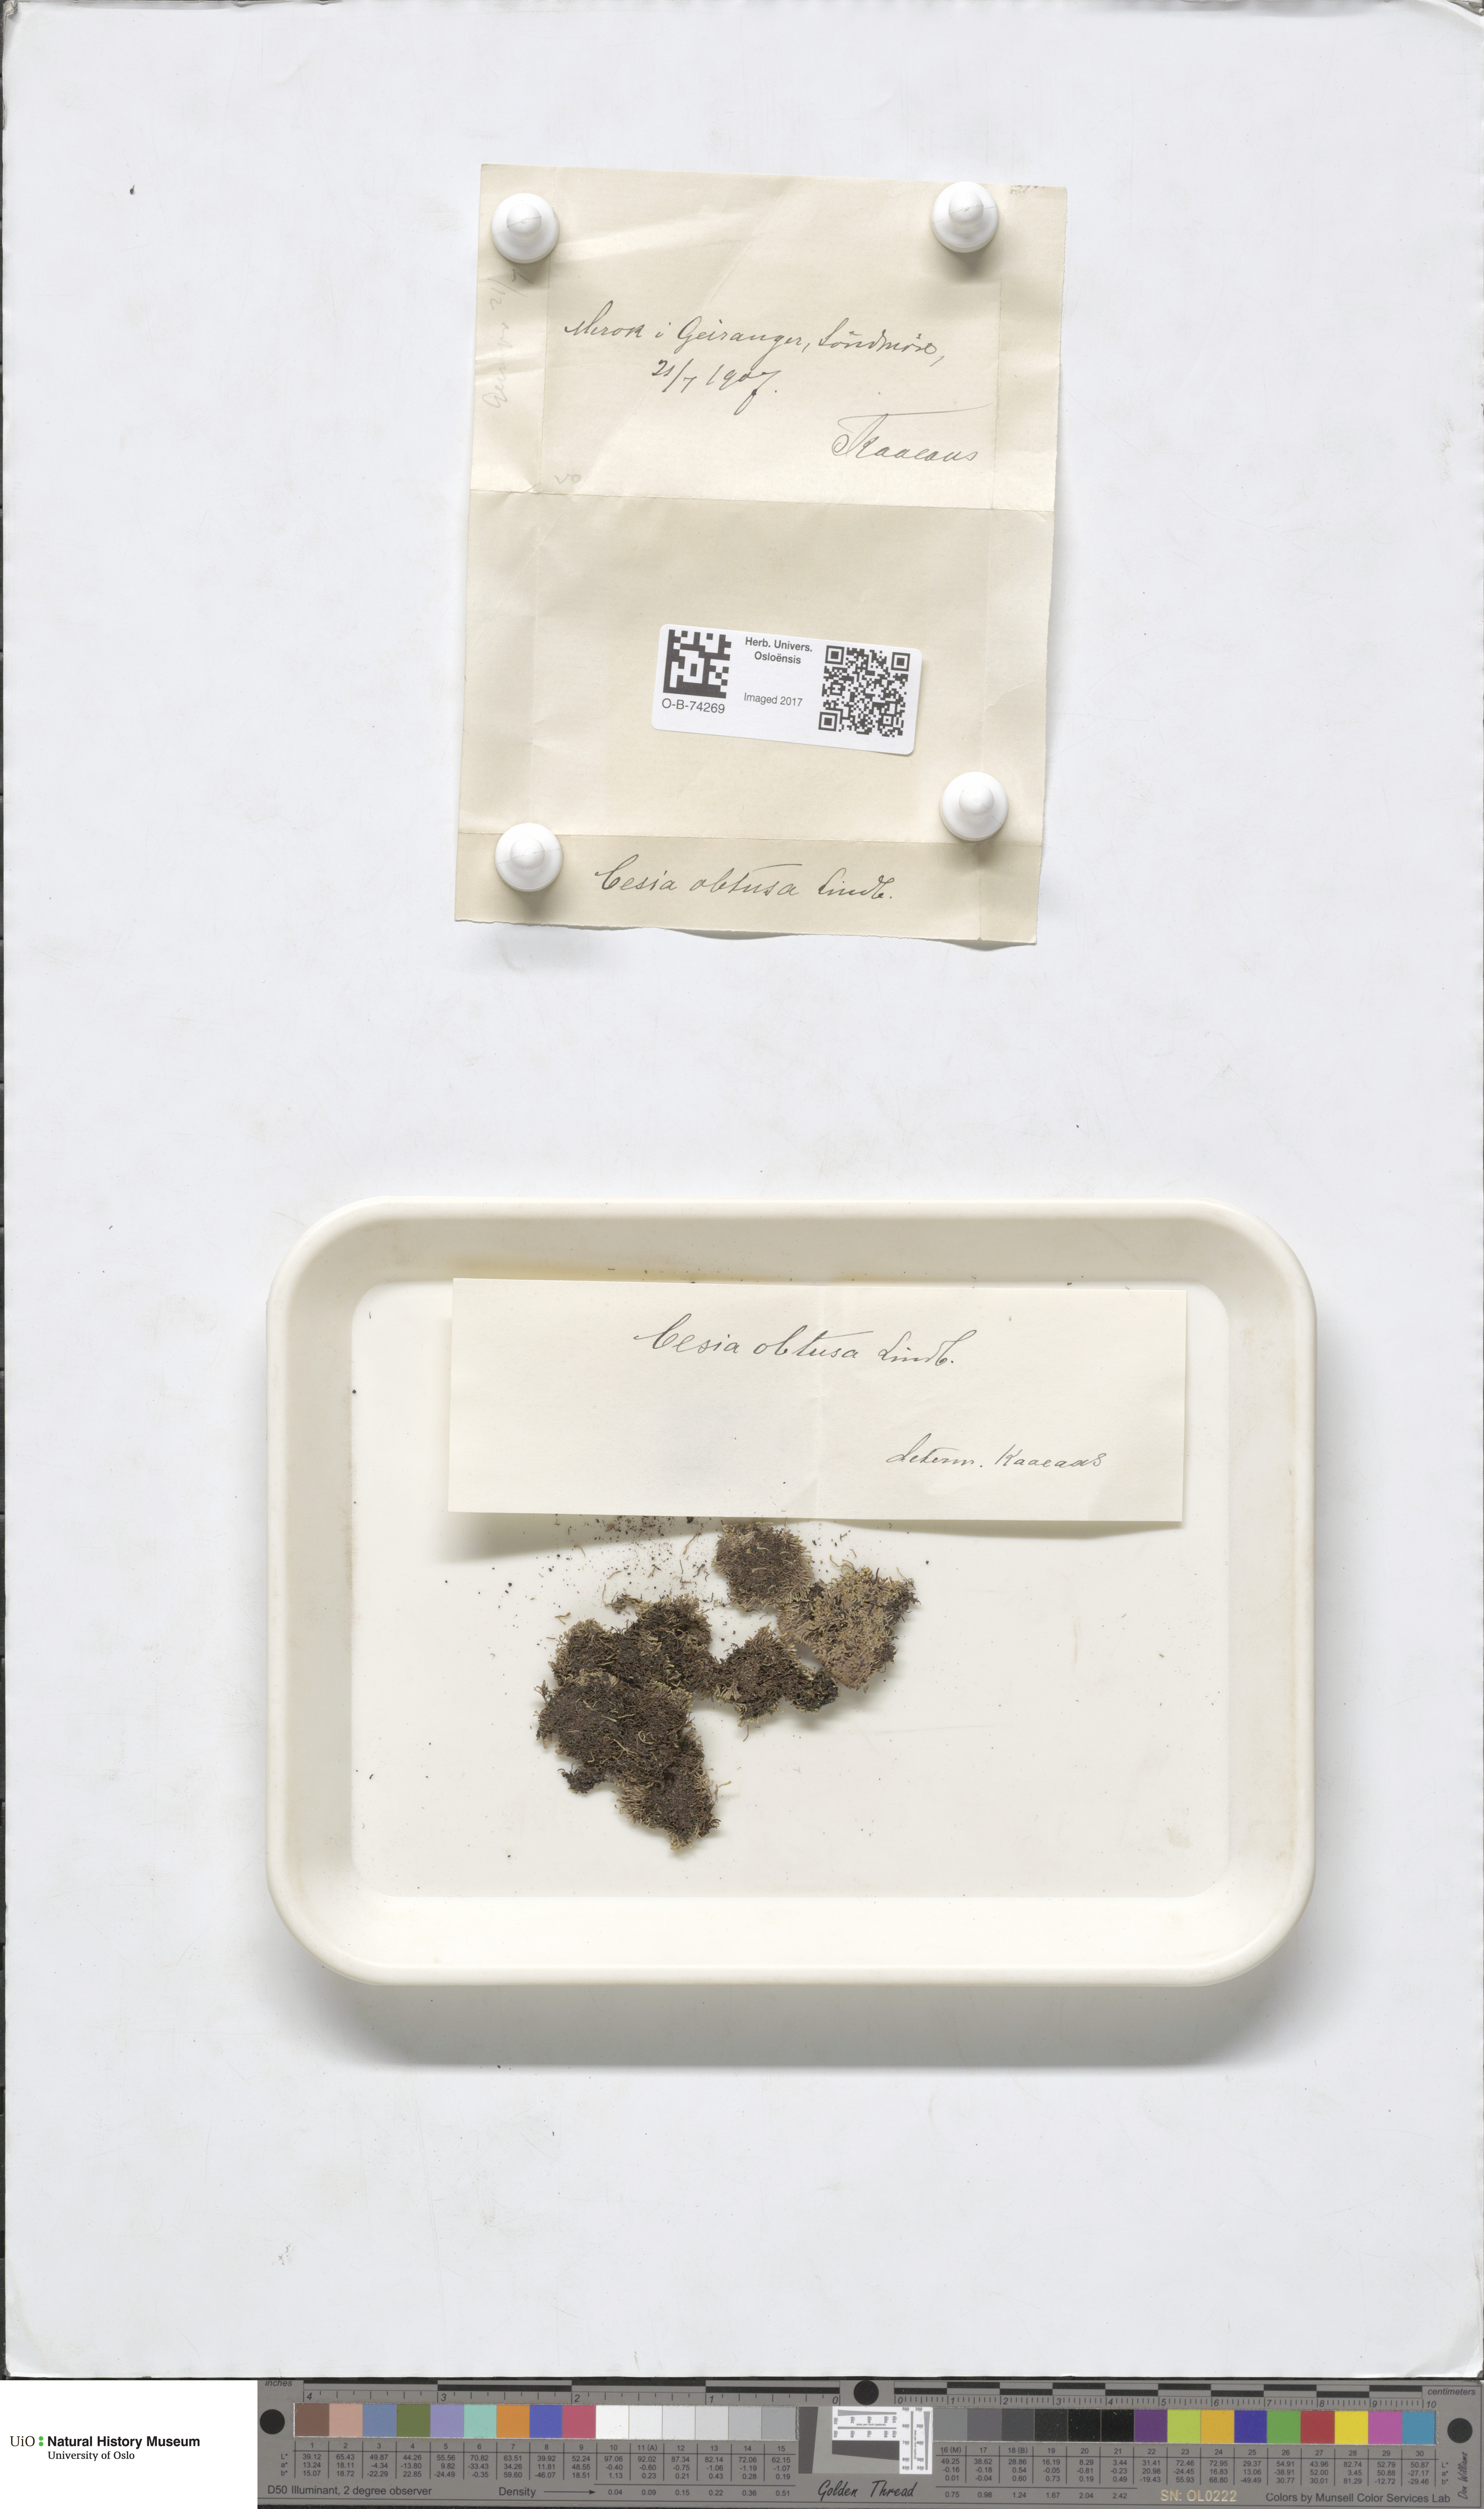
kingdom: Plantae
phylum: Marchantiophyta
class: Jungermanniopsida
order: Jungermanniales
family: Gymnomitriaceae
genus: Gymnomitrion
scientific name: Gymnomitrion obtusum
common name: White frostwort
